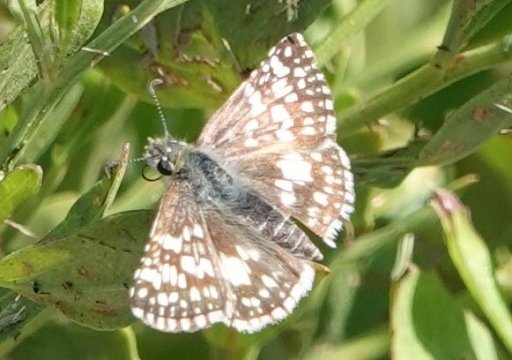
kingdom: Animalia
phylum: Arthropoda
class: Insecta
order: Lepidoptera
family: Hesperiidae
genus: Pyrgus
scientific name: Pyrgus communis
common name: White Checkered-Skipper
